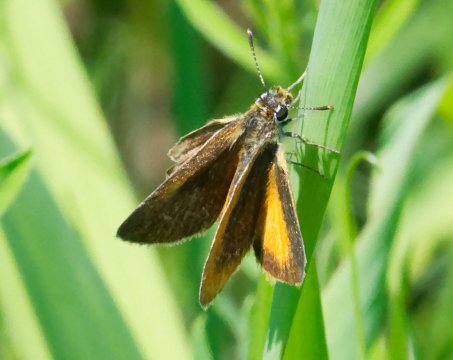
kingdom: Animalia
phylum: Arthropoda
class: Insecta
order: Lepidoptera
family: Hesperiidae
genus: Ancyloxypha
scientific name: Ancyloxypha numitor
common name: Least Skipper
